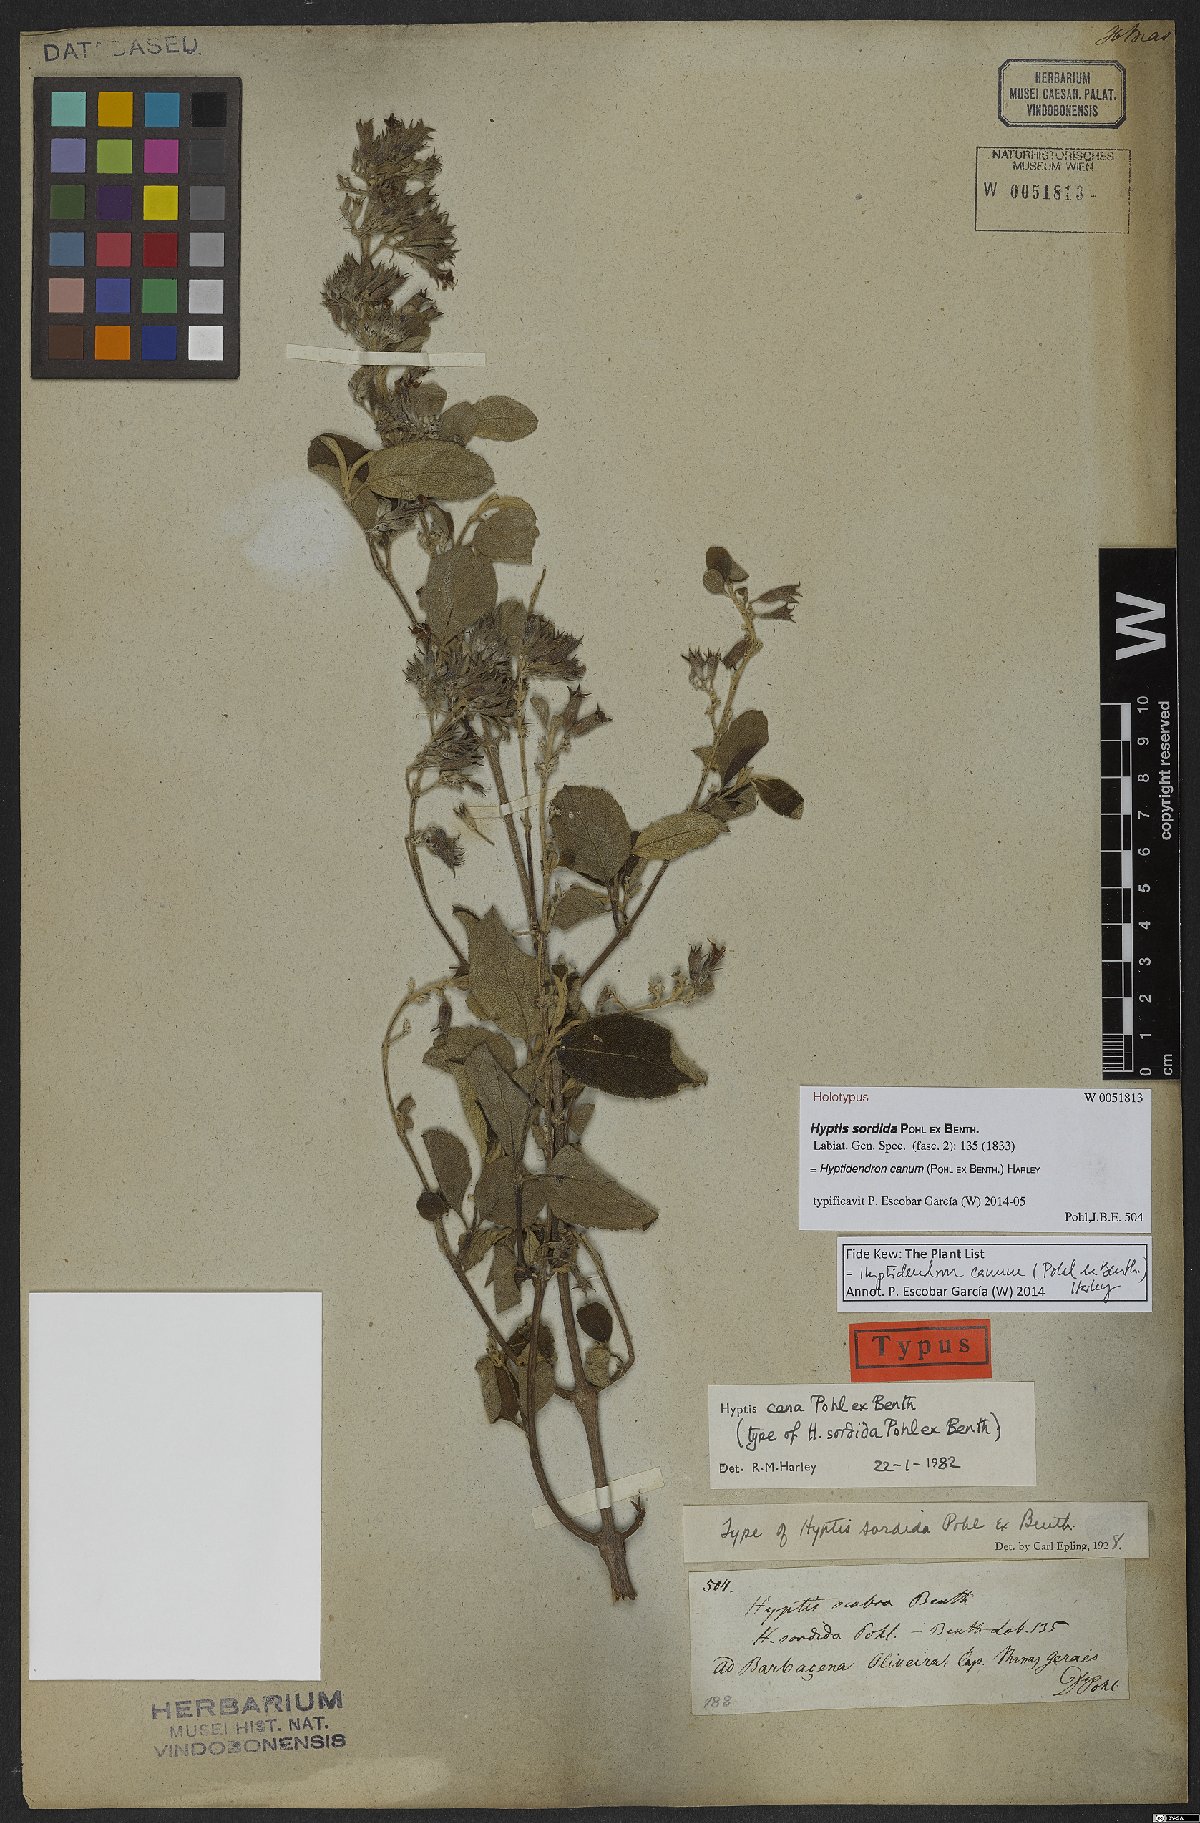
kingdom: Plantae
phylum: Tracheophyta
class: Magnoliopsida
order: Lamiales
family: Lamiaceae
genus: Hyptidendron
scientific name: Hyptidendron canum
